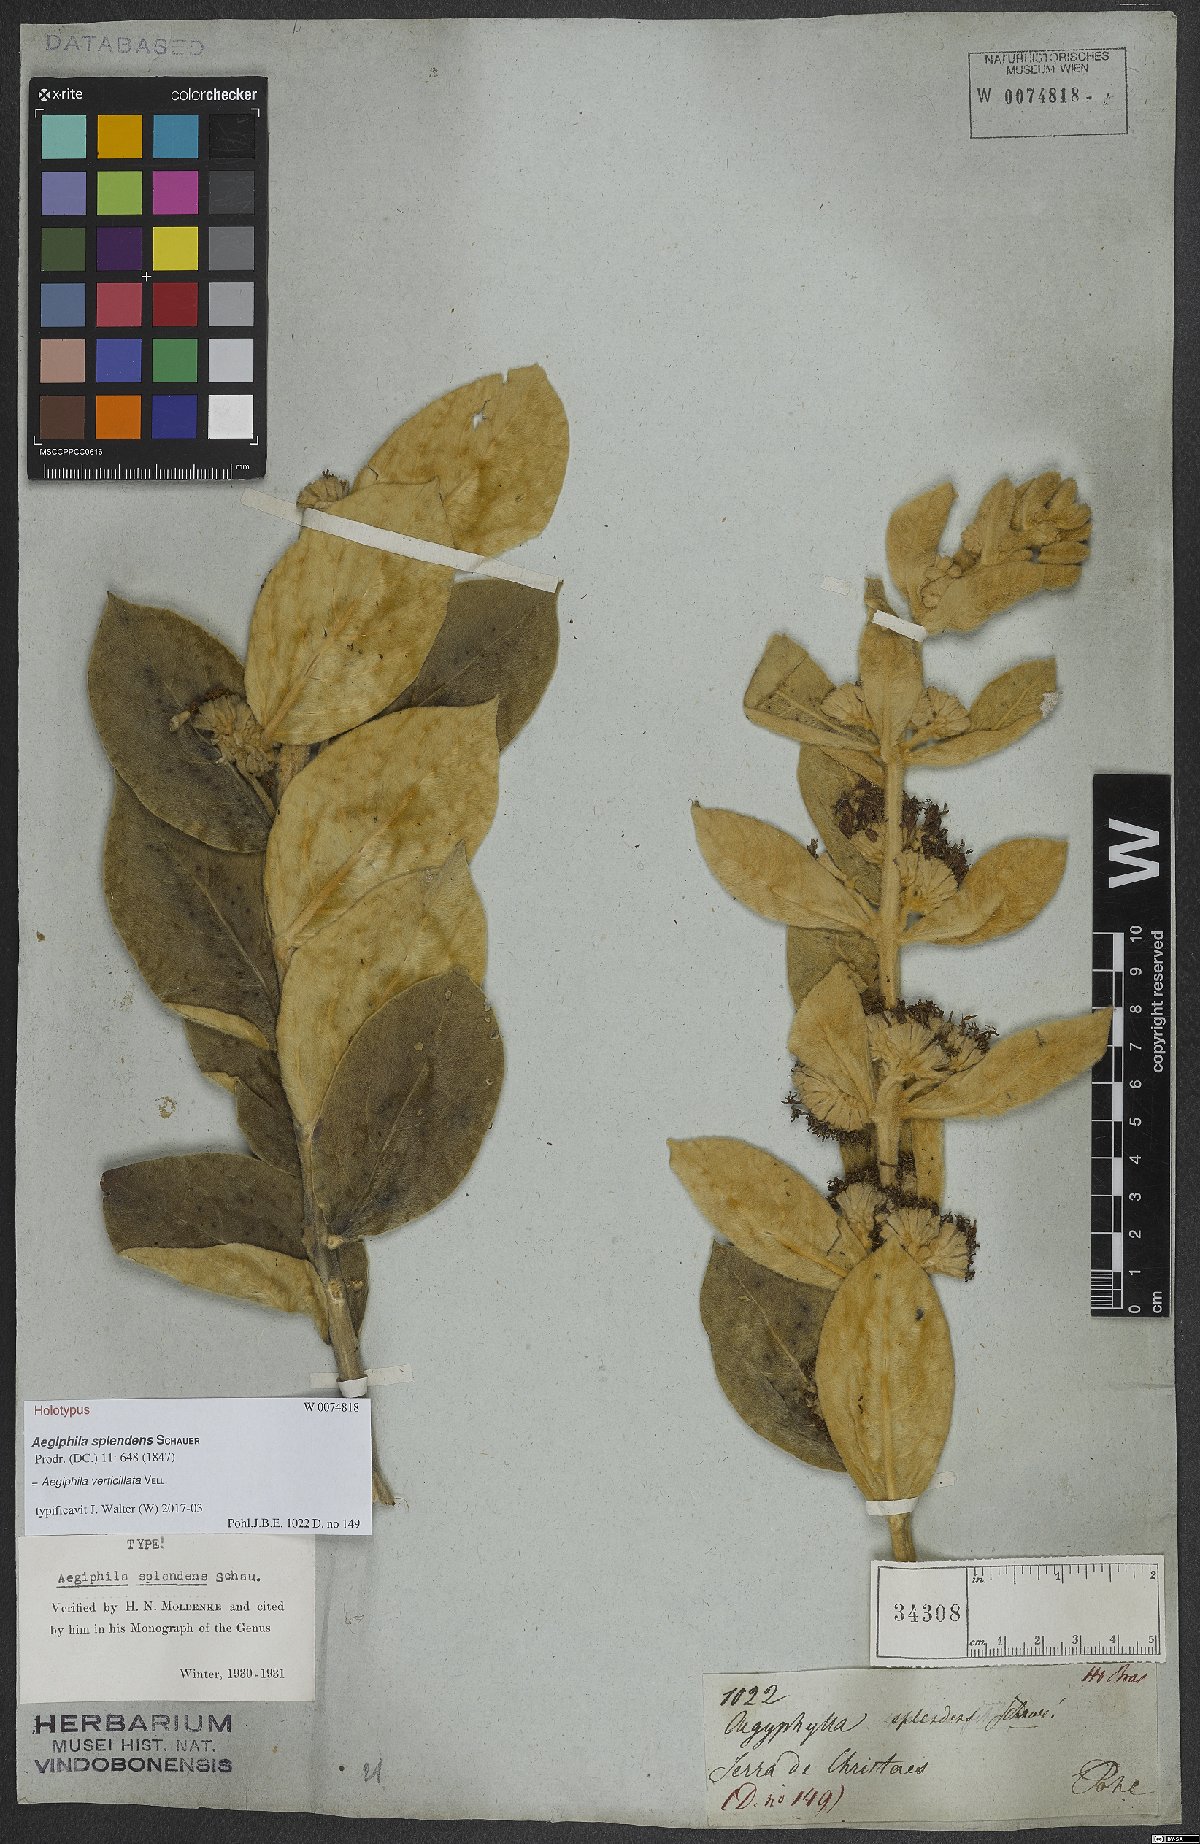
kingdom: Plantae
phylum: Tracheophyta
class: Magnoliopsida
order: Lamiales
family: Lamiaceae
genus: Aegiphila
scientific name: Aegiphila verticillata
